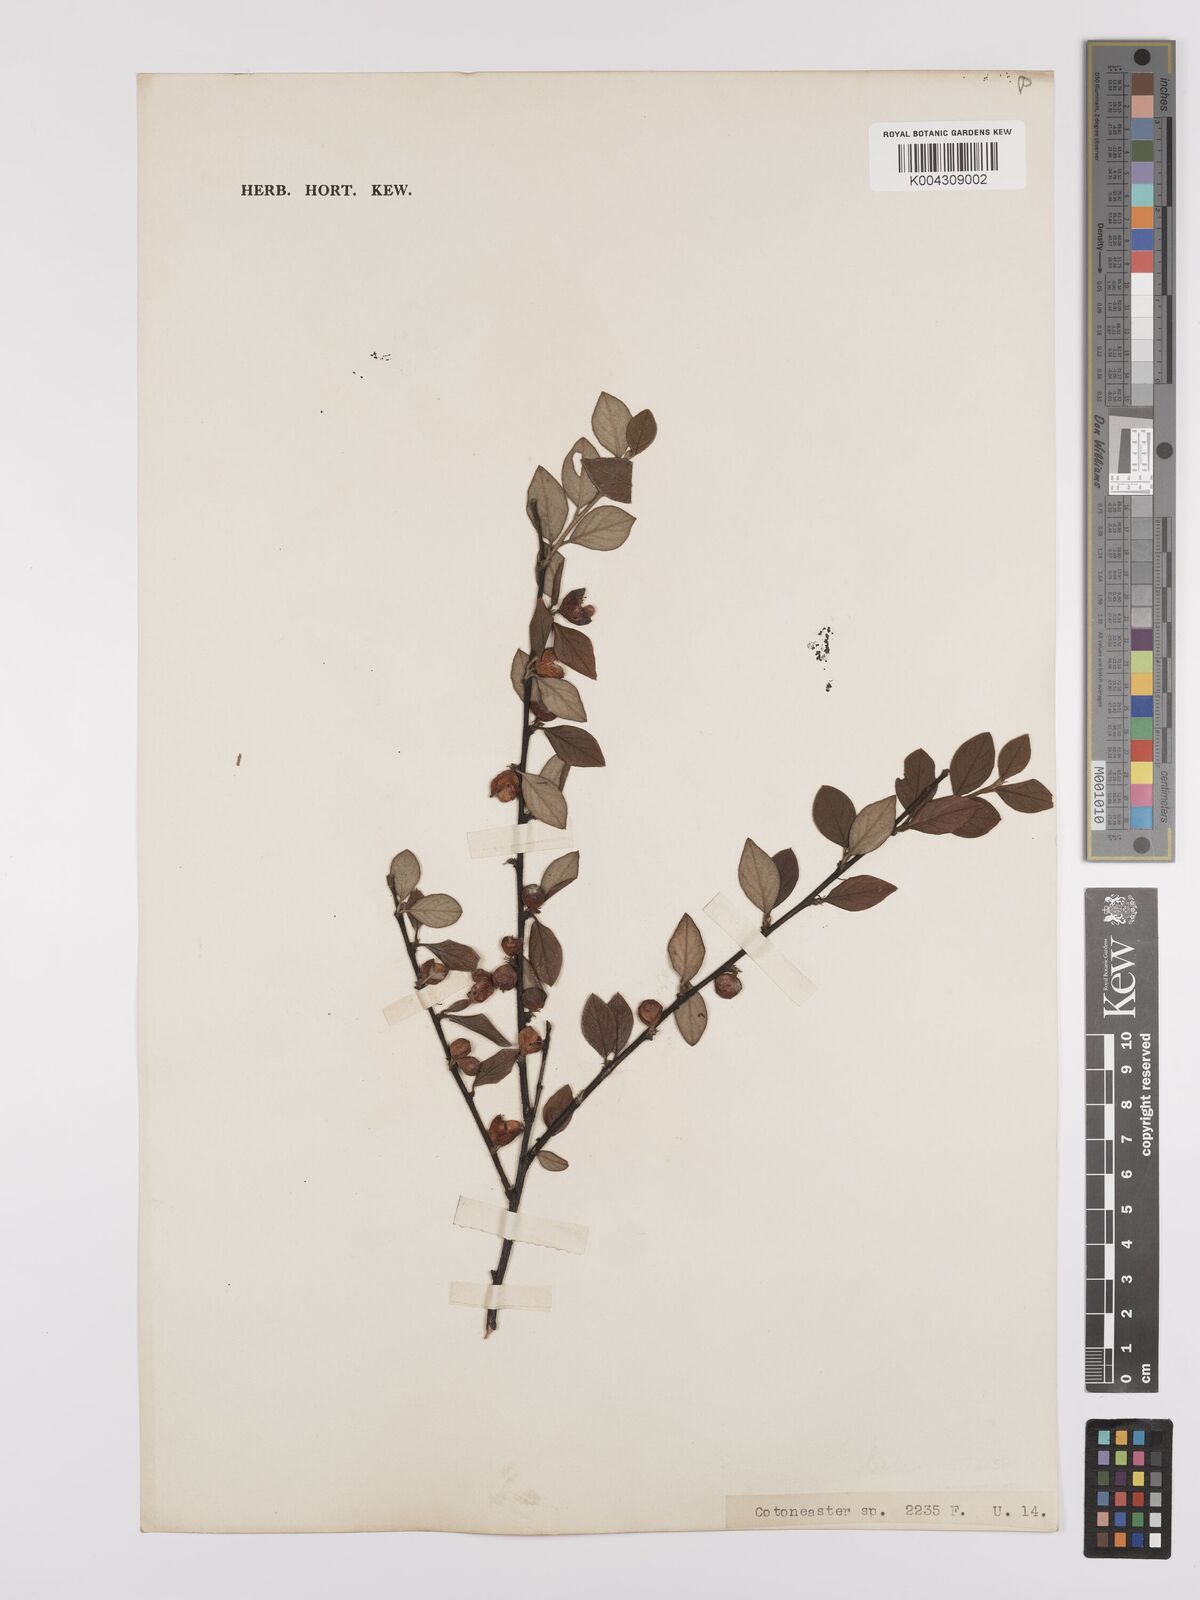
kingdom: Plantae
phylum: Tracheophyta
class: Magnoliopsida
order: Rosales
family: Rosaceae
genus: Cotoneaster
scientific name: Cotoneaster
